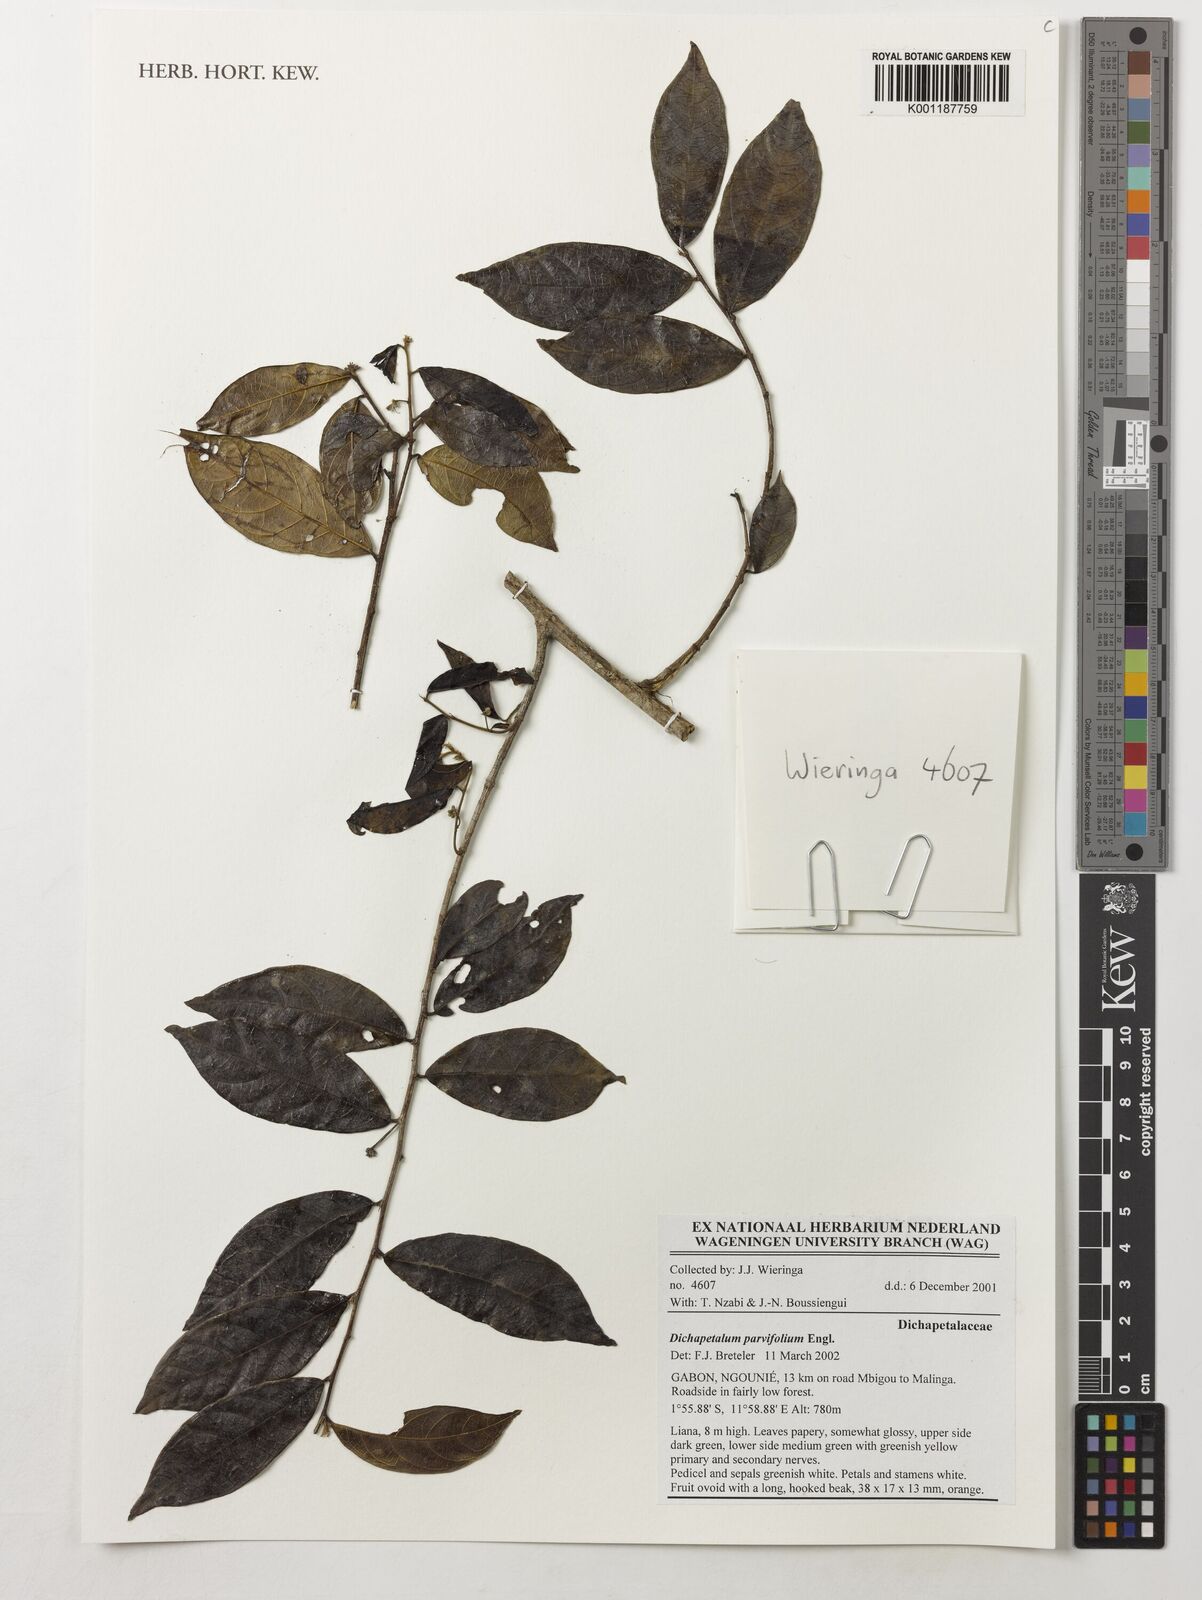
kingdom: Plantae
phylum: Tracheophyta
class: Magnoliopsida
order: Malpighiales
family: Dichapetalaceae
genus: Dichapetalum
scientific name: Dichapetalum parvifolium
